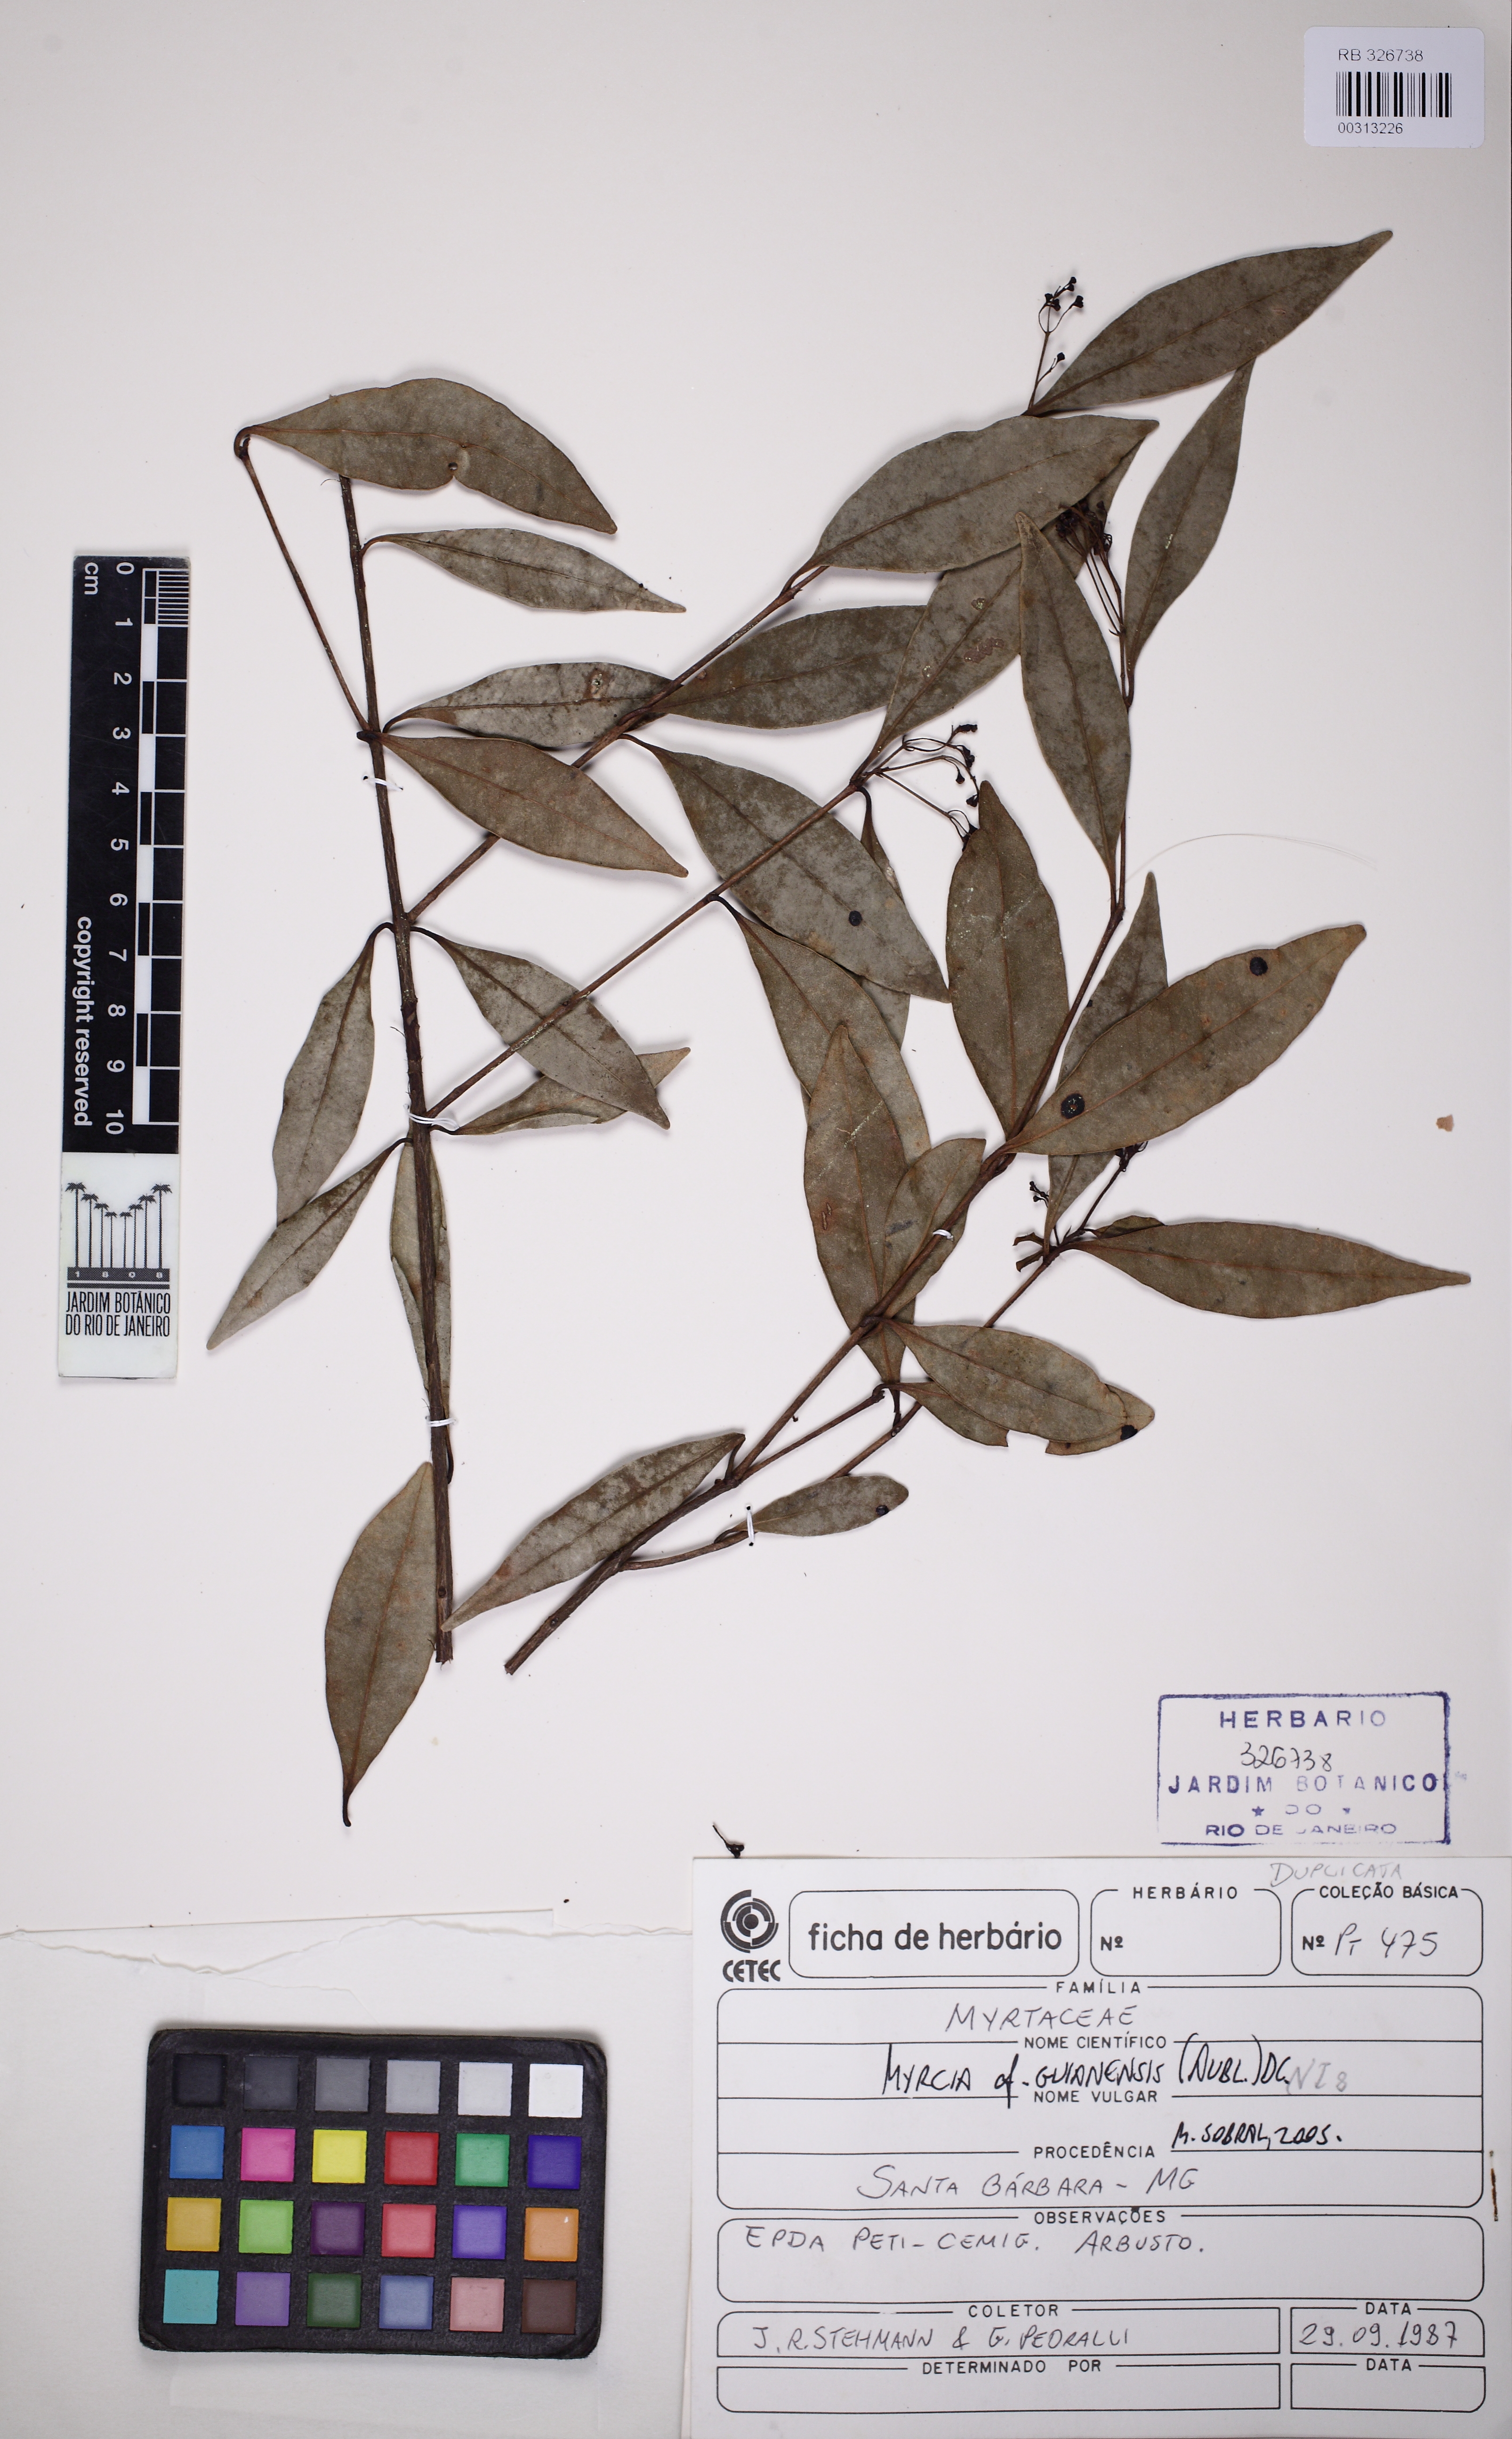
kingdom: Plantae
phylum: Tracheophyta
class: Magnoliopsida
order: Myrtales
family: Myrtaceae
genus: Myrcia
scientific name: Myrcia guianensis
